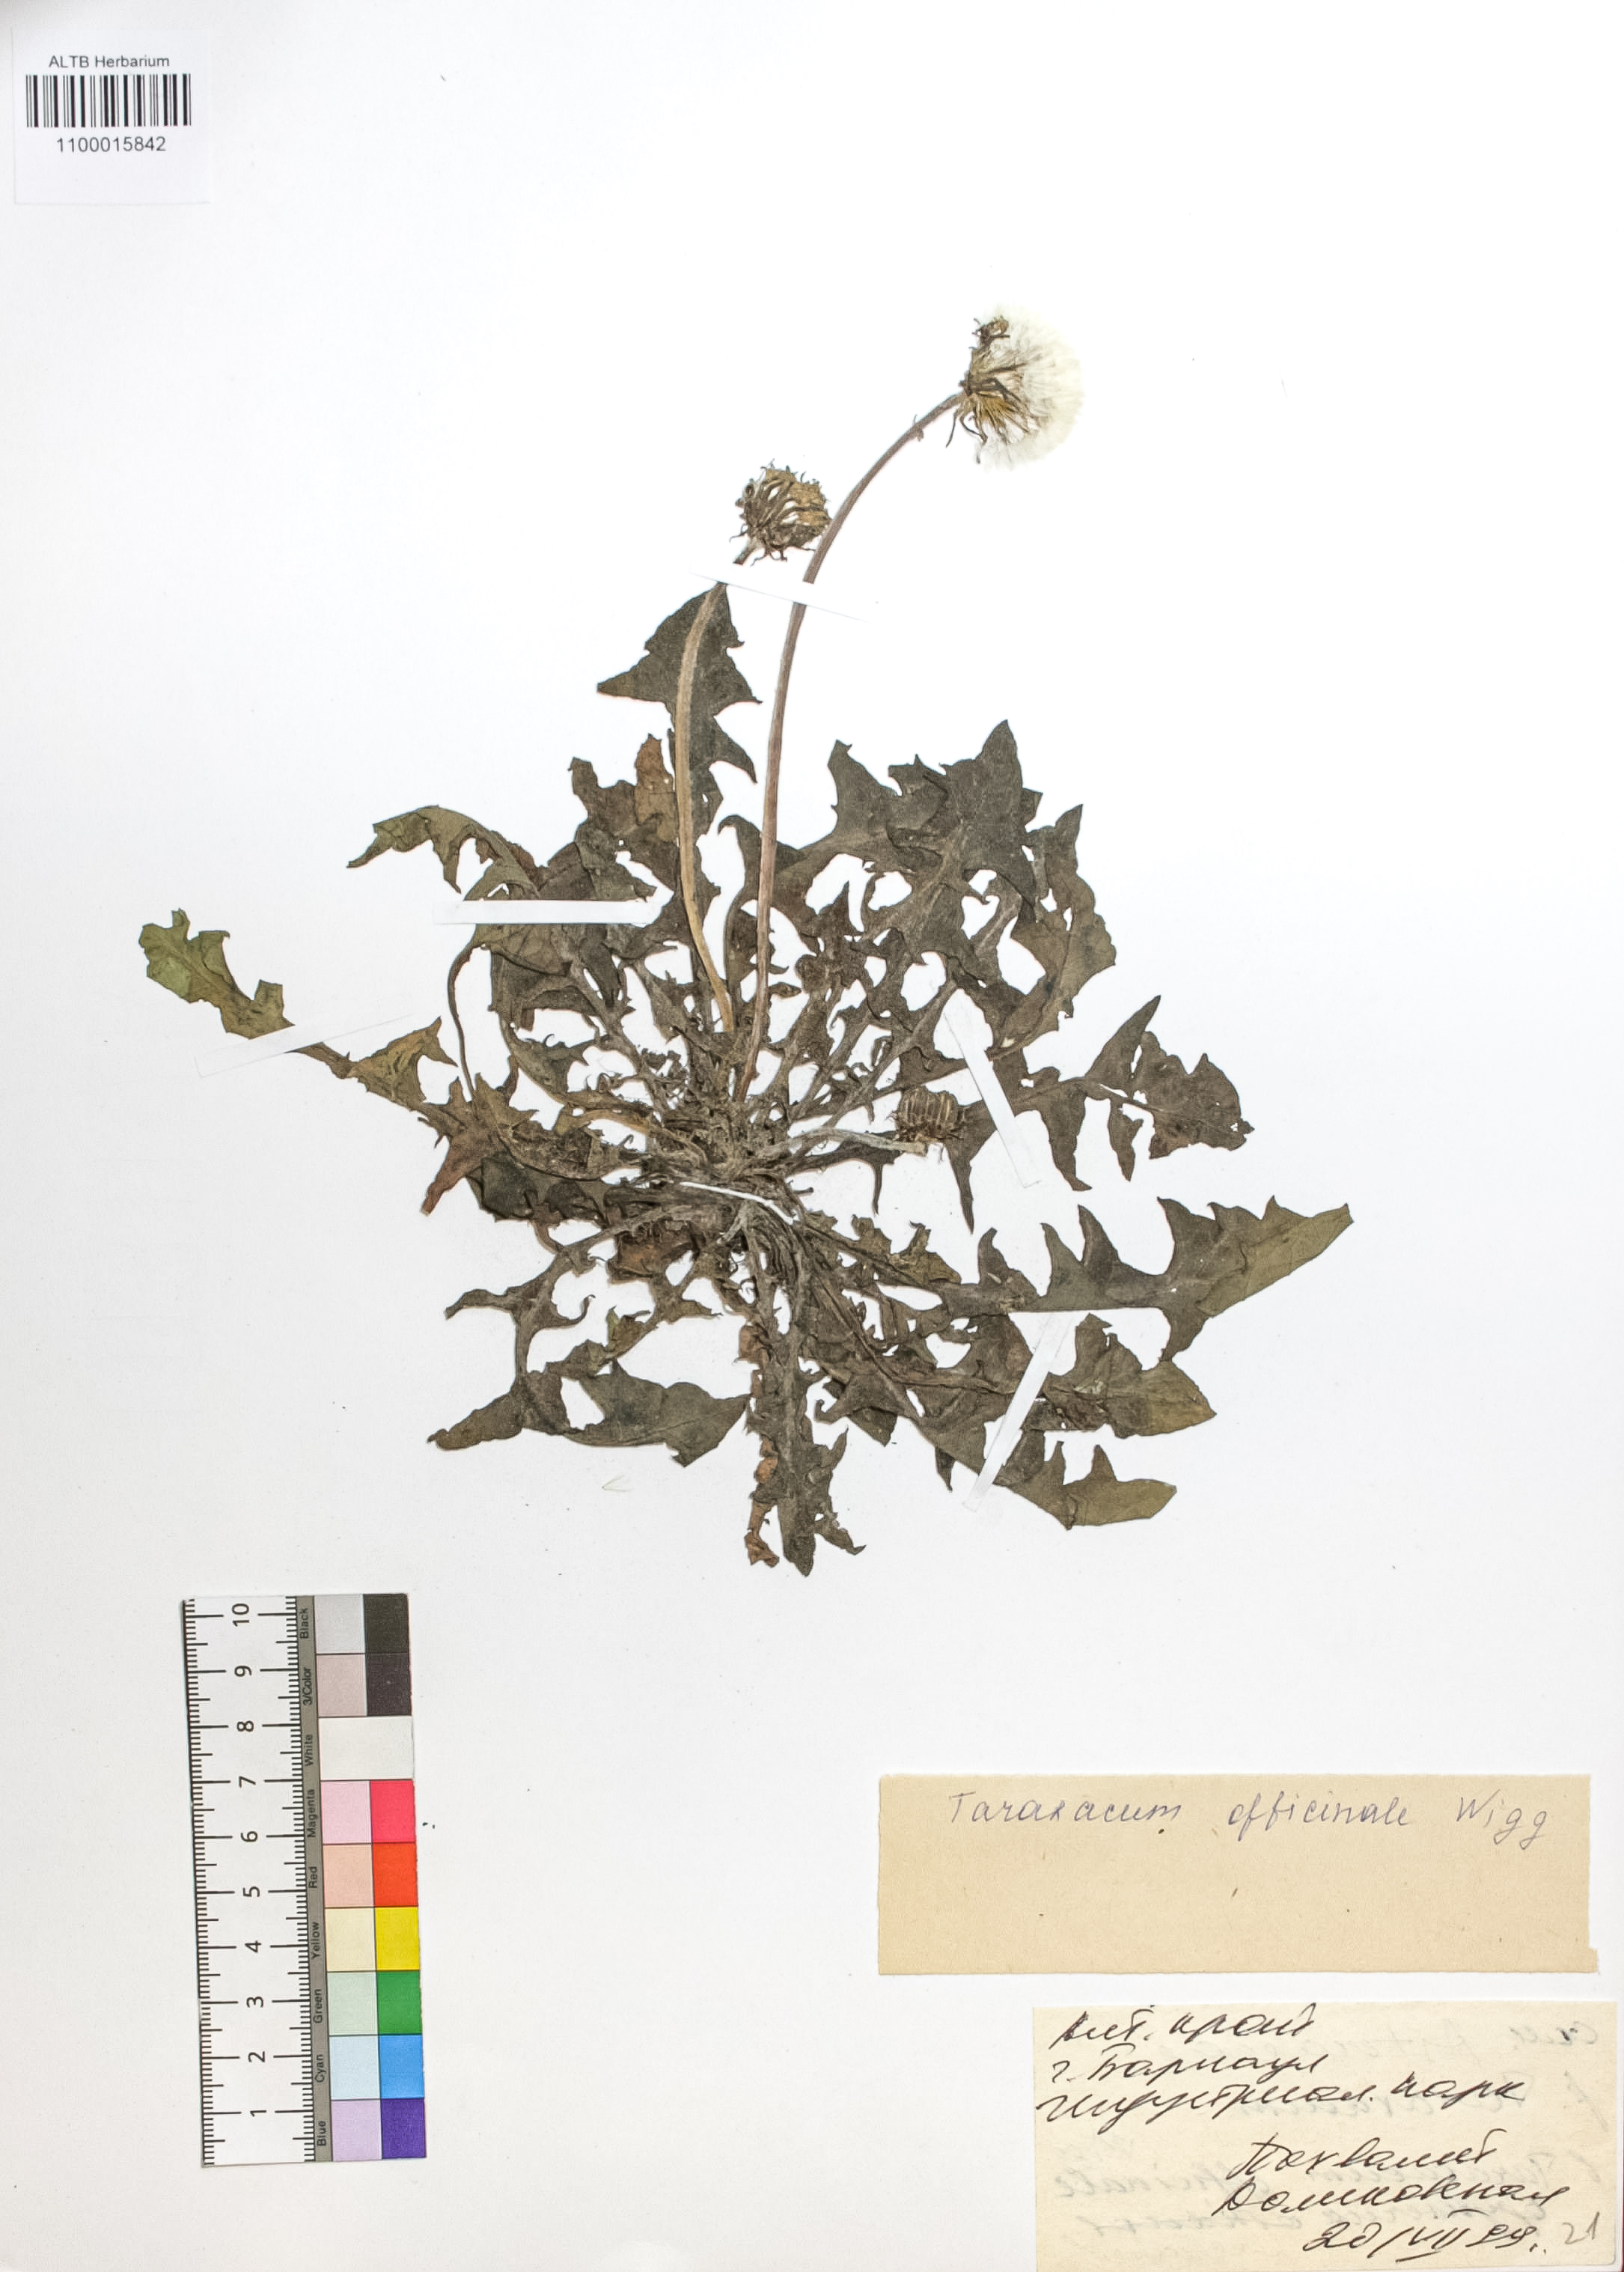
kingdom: Plantae
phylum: Tracheophyta
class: Magnoliopsida
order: Asterales
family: Asteraceae
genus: Taraxacum
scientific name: Taraxacum officinale
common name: Common dandelion
